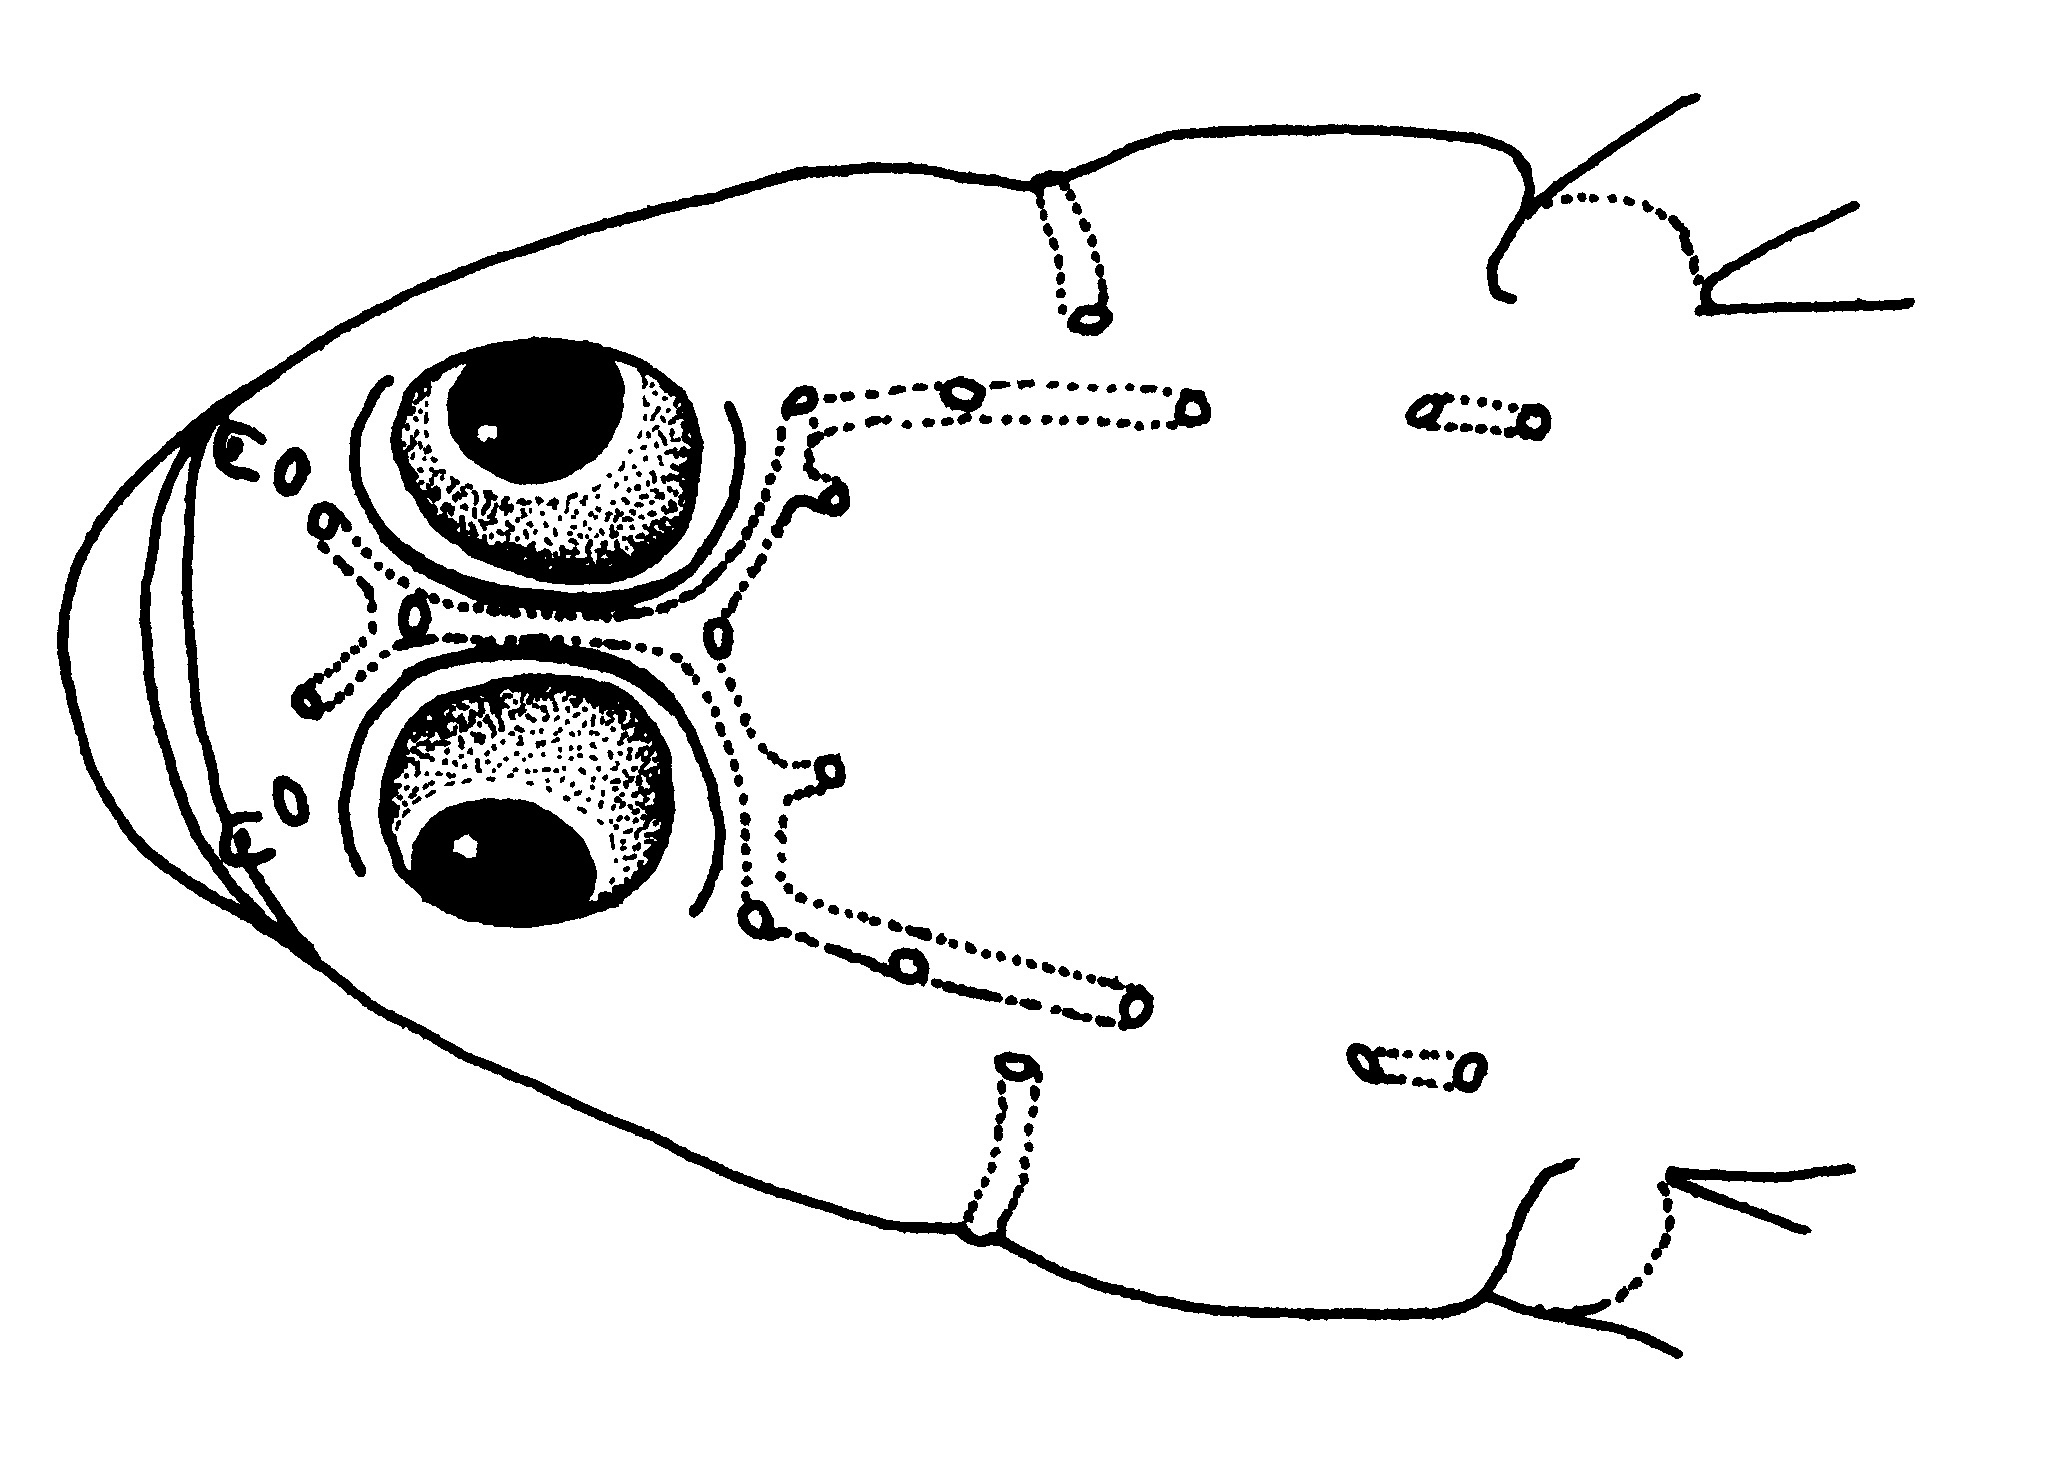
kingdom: Animalia
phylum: Chordata
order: Perciformes
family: Gobiidae
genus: Silhouettea
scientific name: Silhouettea insinuans
